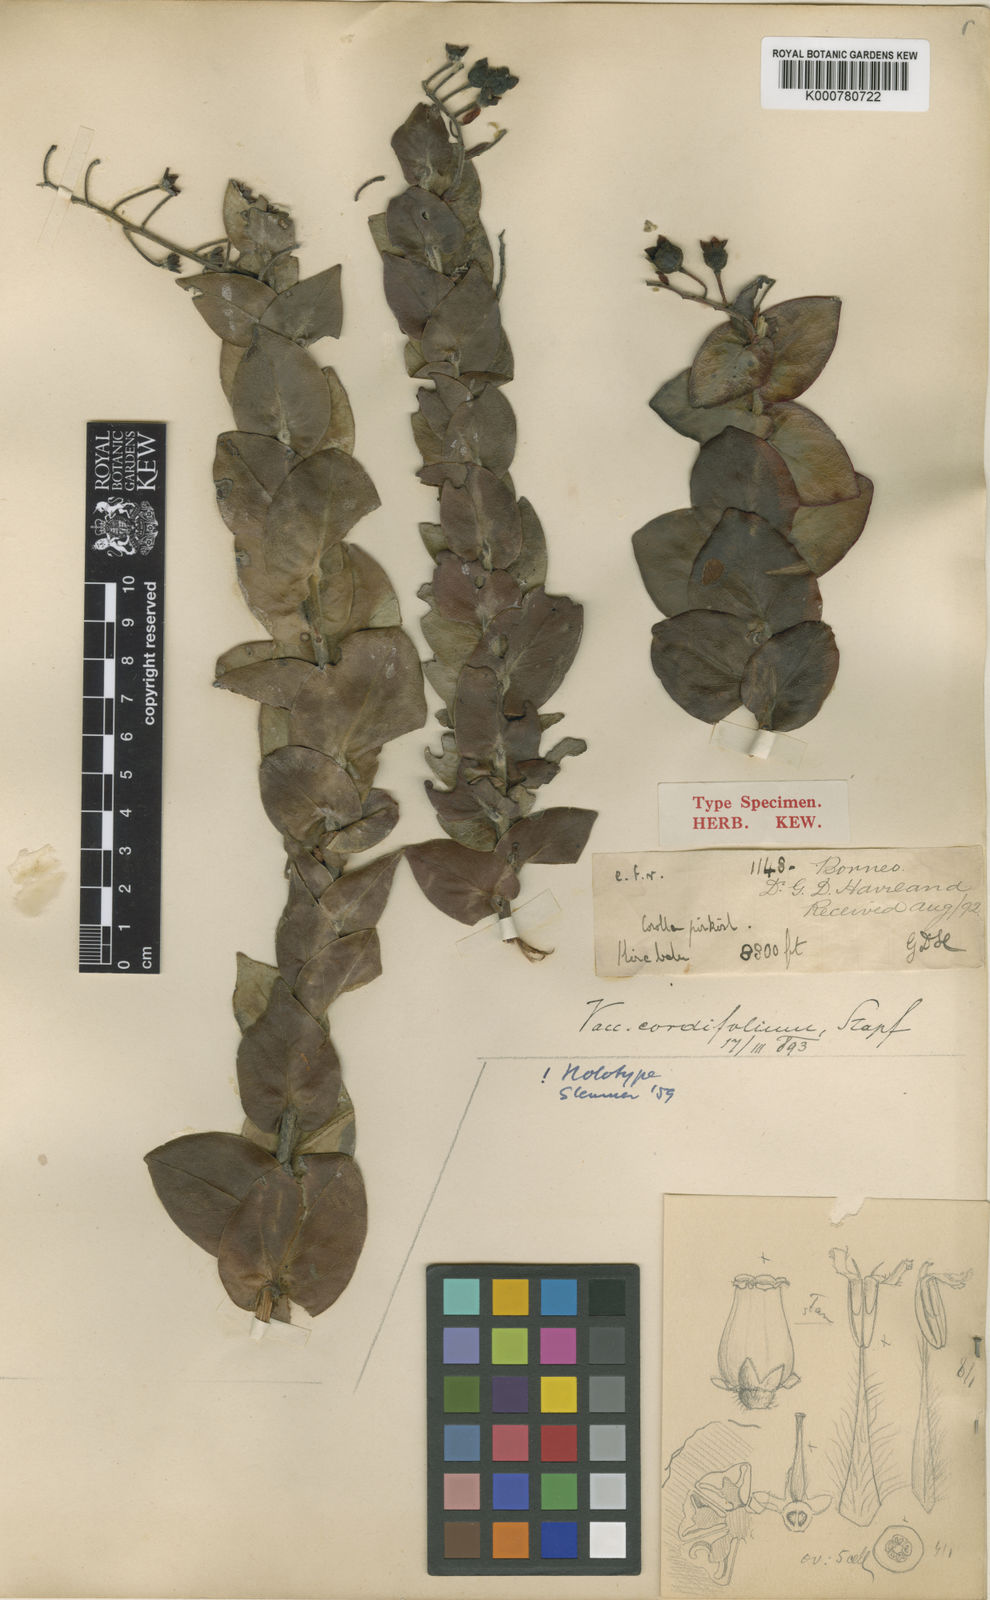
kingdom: Plantae
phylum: Tracheophyta
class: Magnoliopsida
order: Ericales
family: Ericaceae
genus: Vaccinium
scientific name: Vaccinium beamanianum
